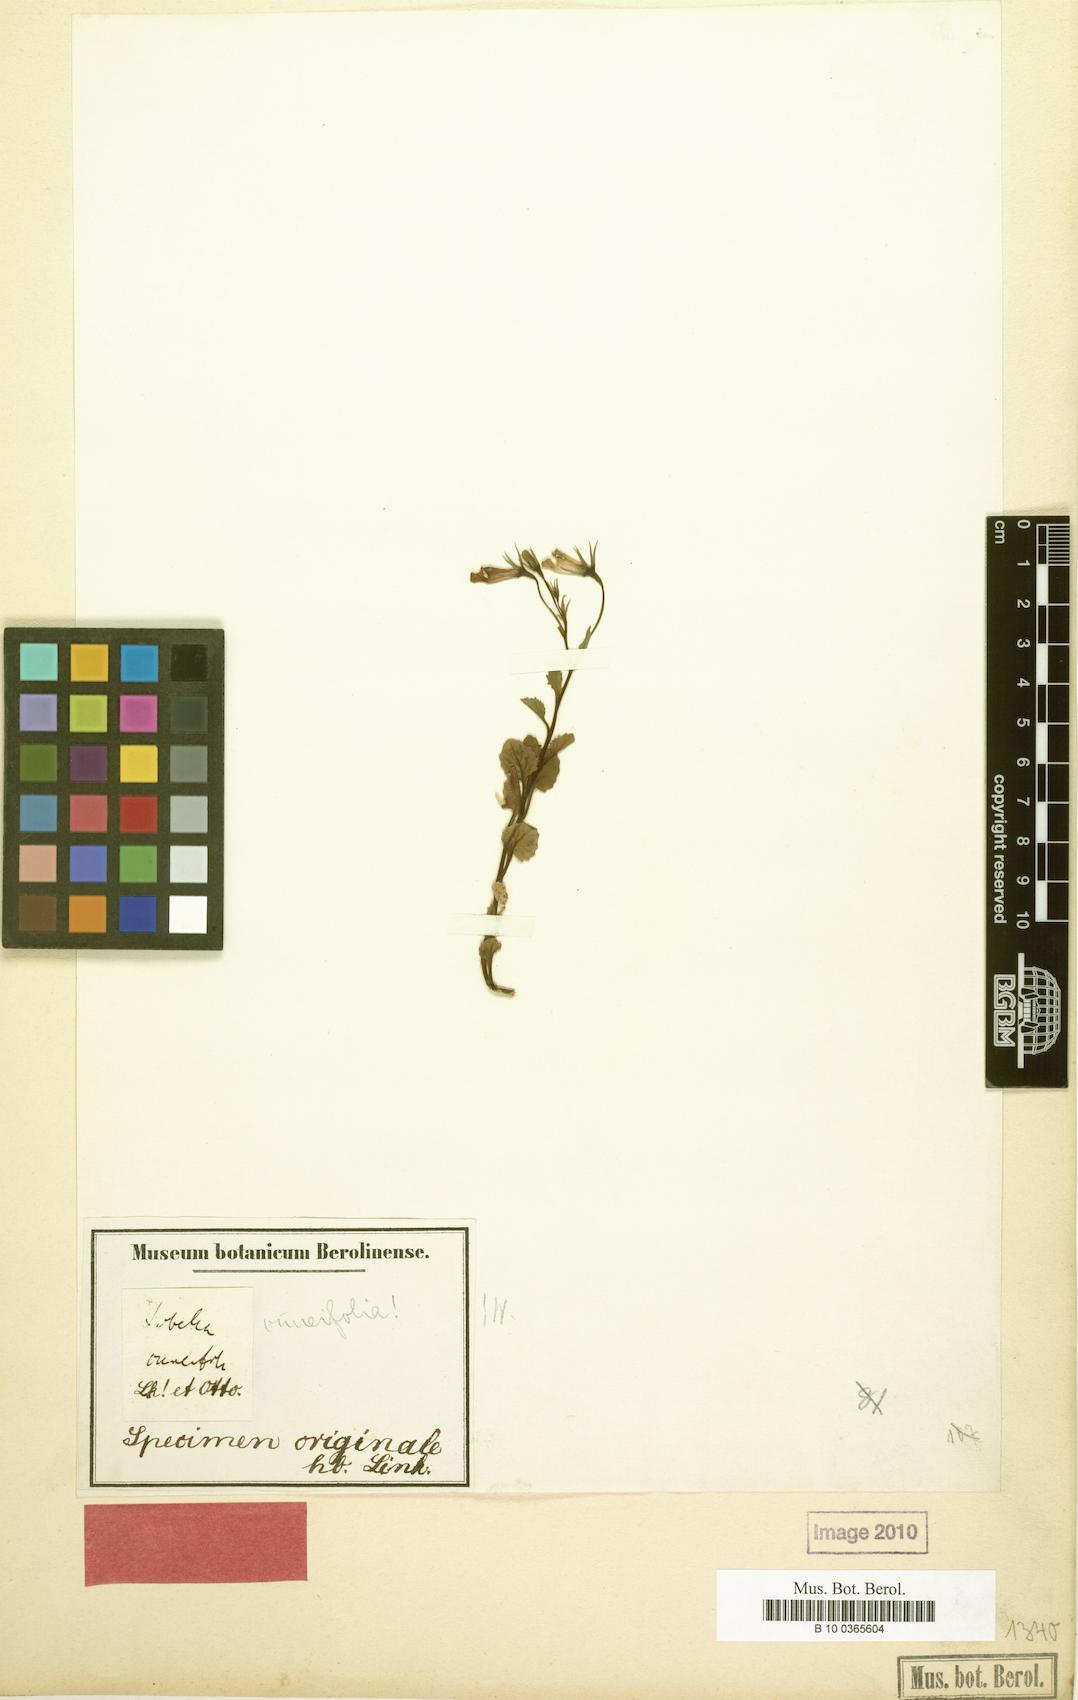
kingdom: Plantae
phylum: Tracheophyta
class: Magnoliopsida
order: Asterales
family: Campanulaceae
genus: Lobelia
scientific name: Lobelia cuneifolia
